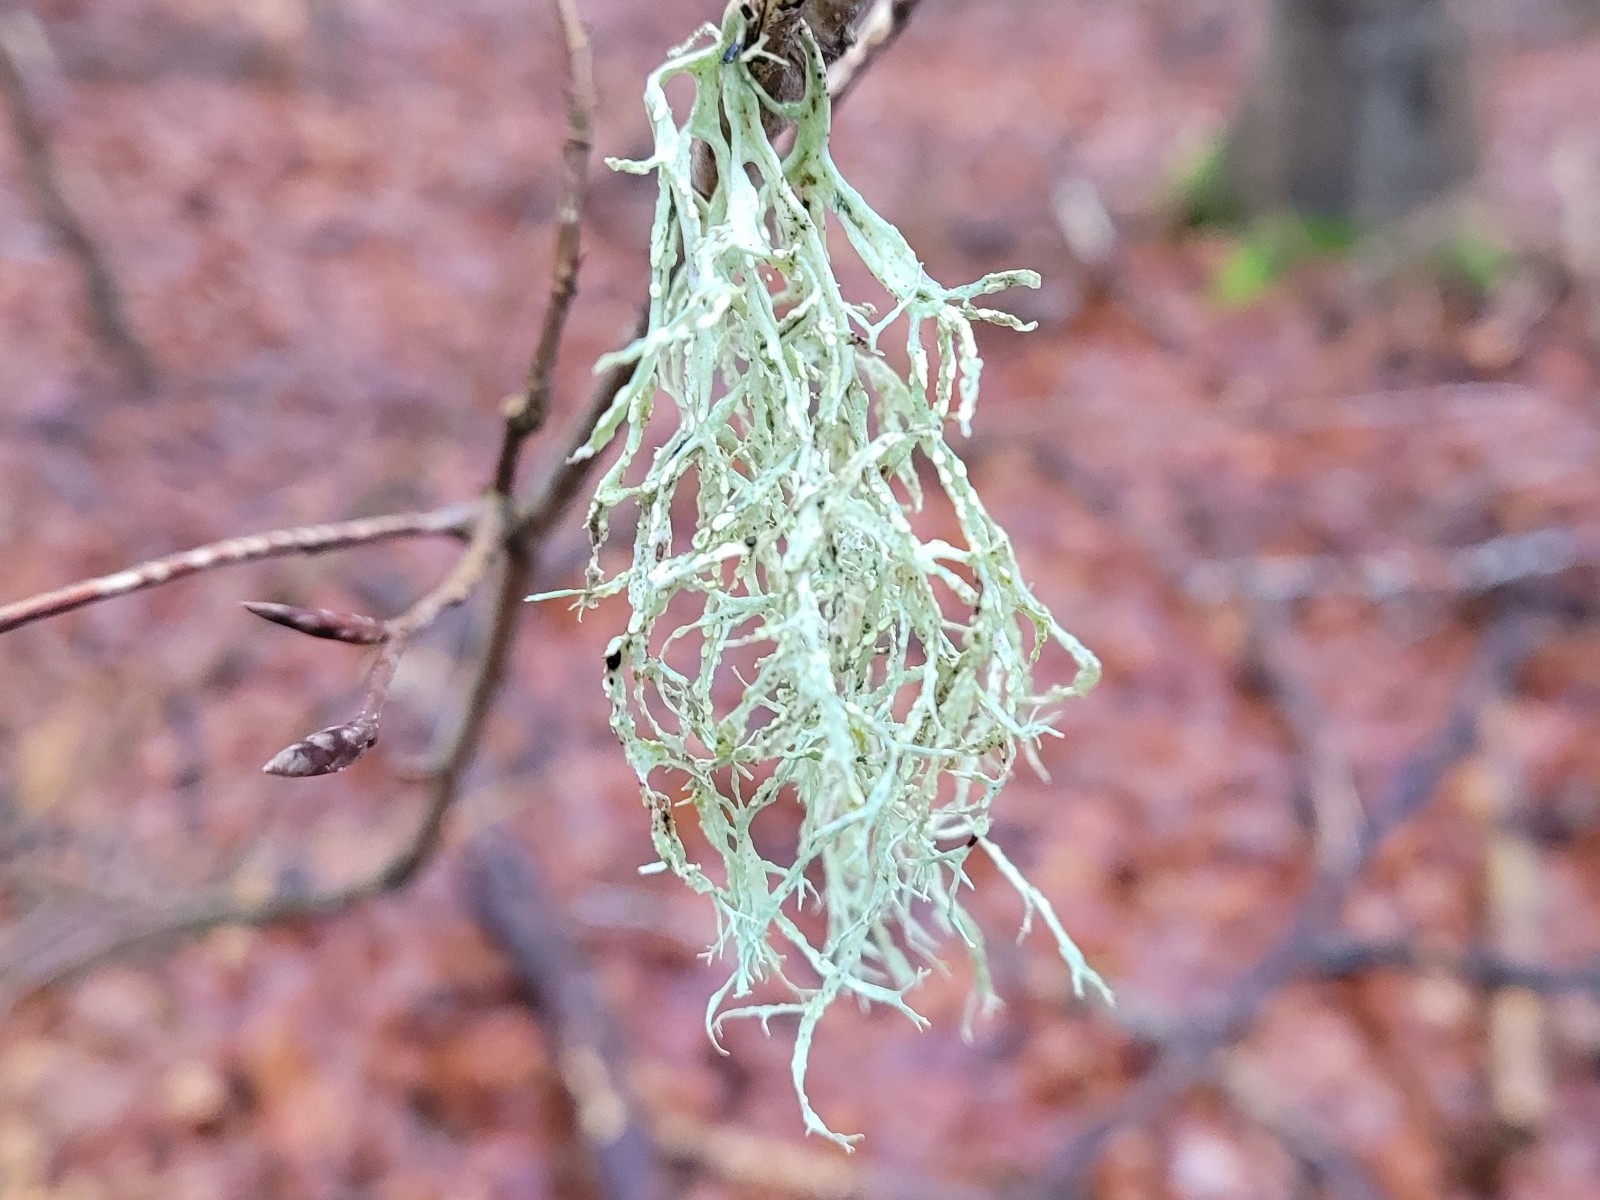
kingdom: Fungi
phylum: Ascomycota
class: Lecanoromycetes
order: Lecanorales
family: Ramalinaceae
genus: Ramalina
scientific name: Ramalina farinacea
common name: melet grenlav
